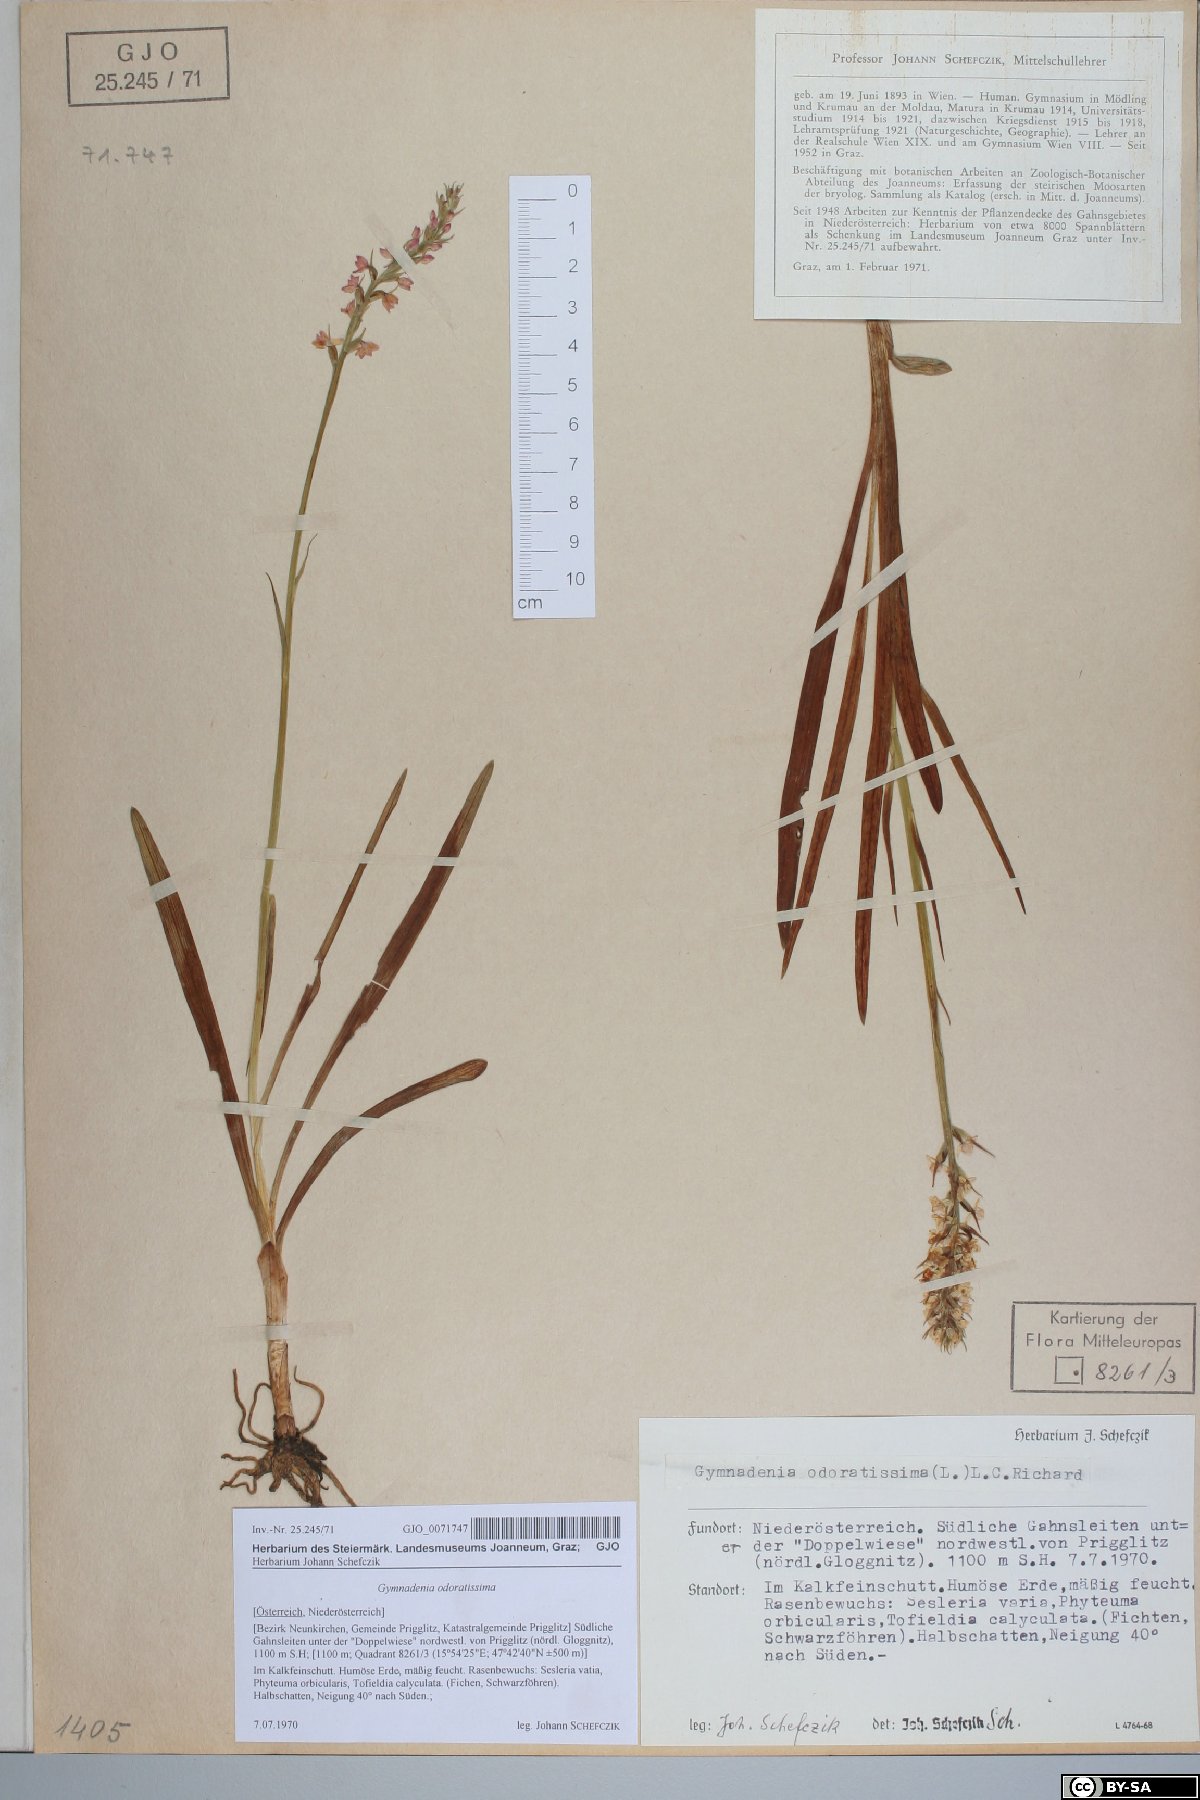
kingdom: Plantae
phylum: Tracheophyta
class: Liliopsida
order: Asparagales
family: Orchidaceae
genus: Gymnadenia
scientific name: Gymnadenia odoratissima
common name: Scented gymnadenia
